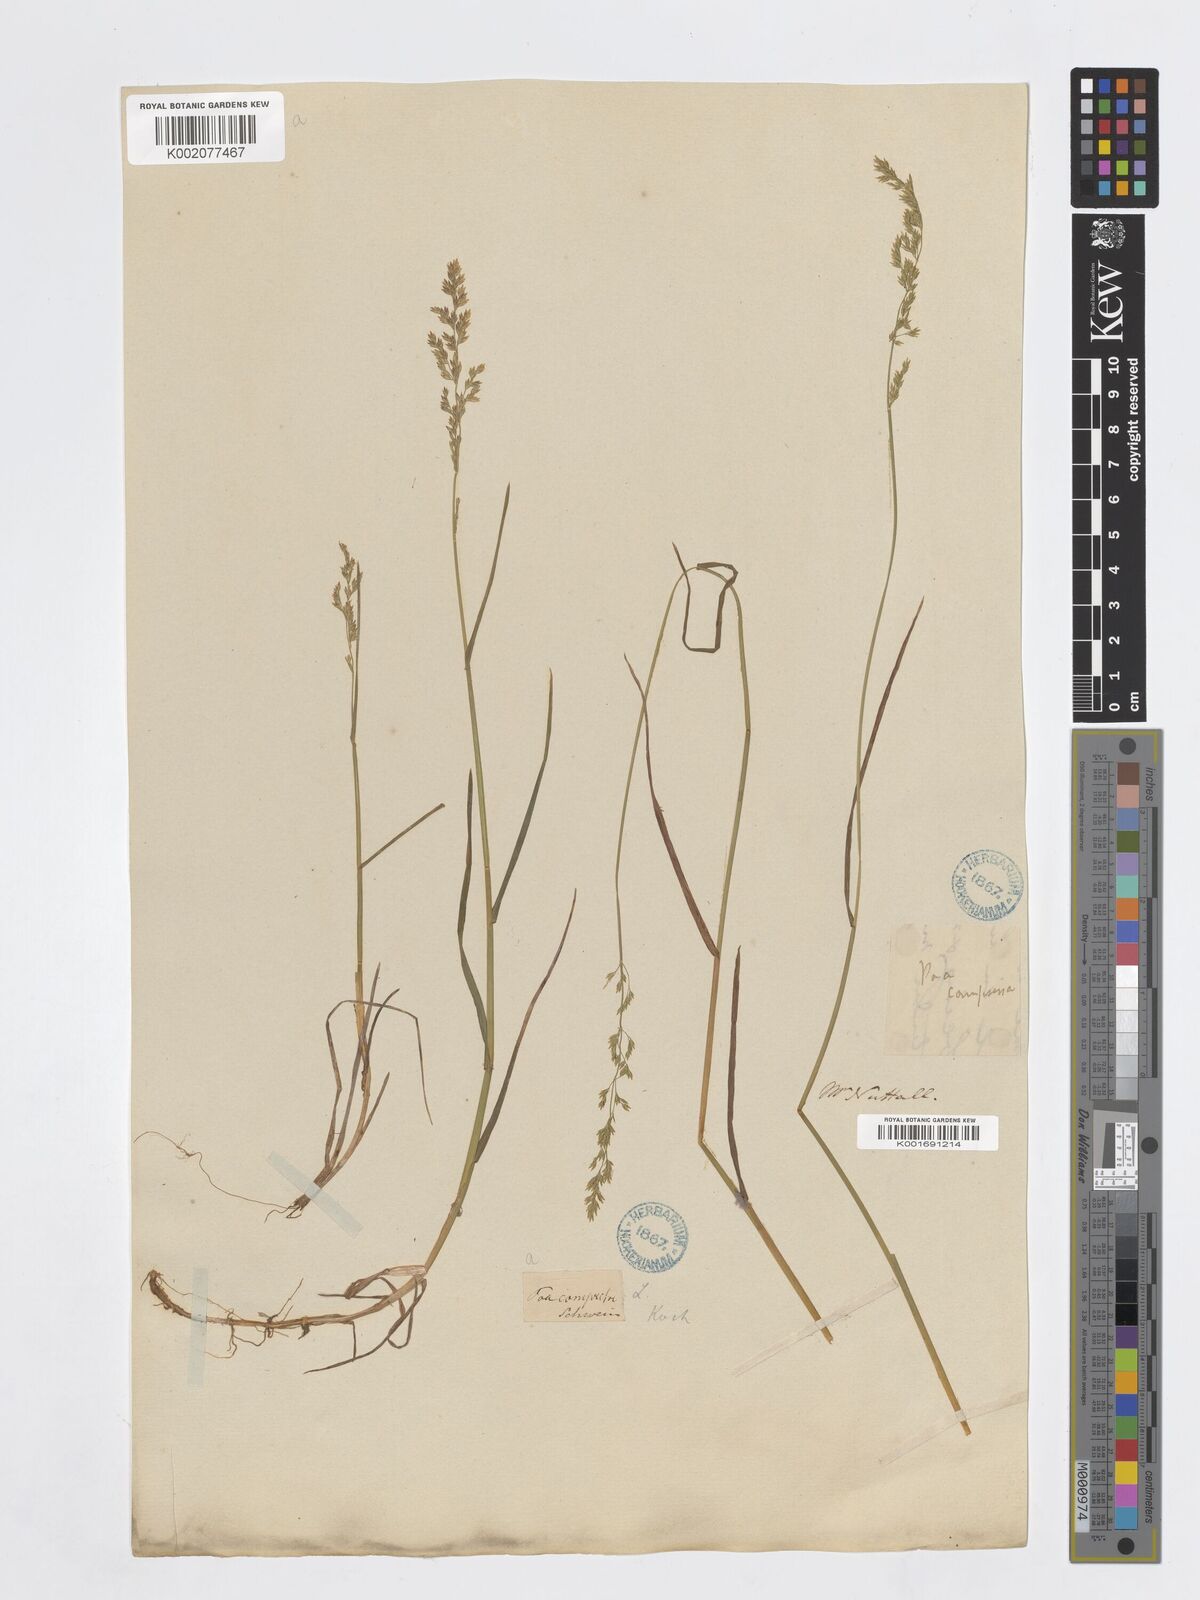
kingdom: Plantae
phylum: Tracheophyta
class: Liliopsida
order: Poales
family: Poaceae
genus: Poa
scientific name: Poa compressa
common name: Canada bluegrass
